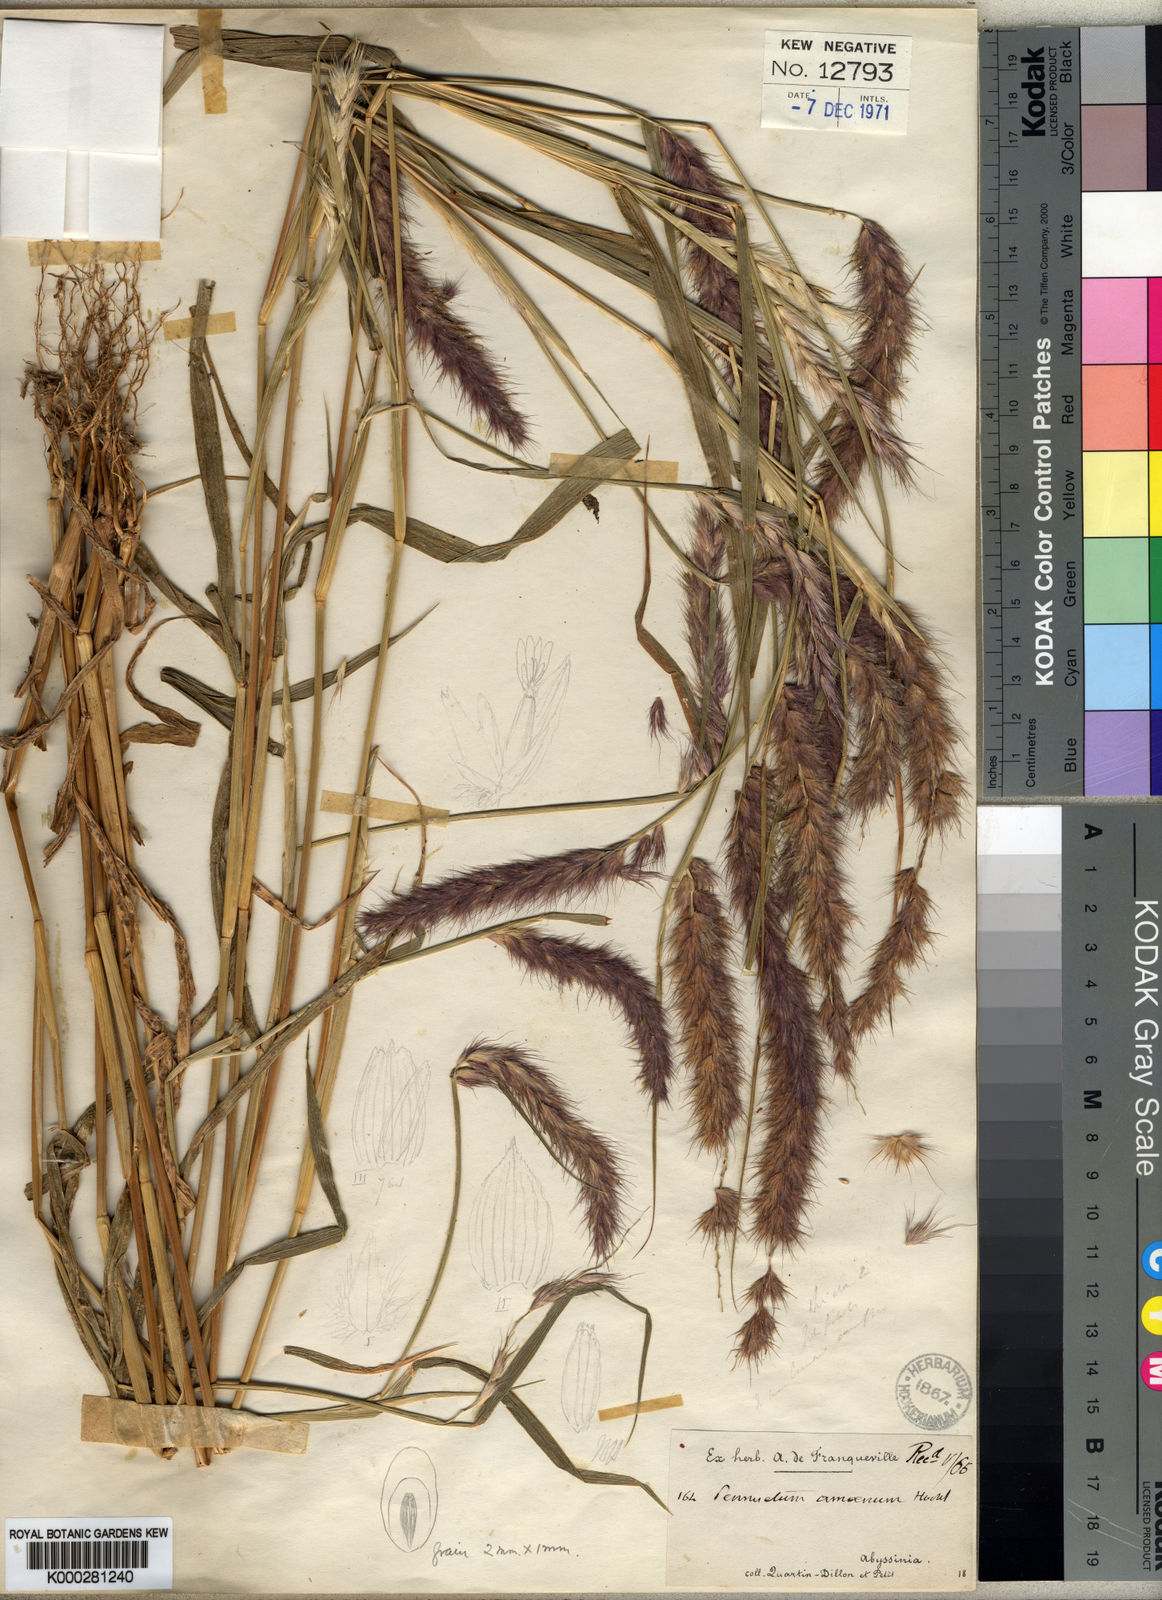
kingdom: Plantae
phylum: Tracheophyta
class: Liliopsida
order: Poales
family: Poaceae
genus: Cenchrus
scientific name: Cenchrus pedicellatus
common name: Hairy fountain grass
